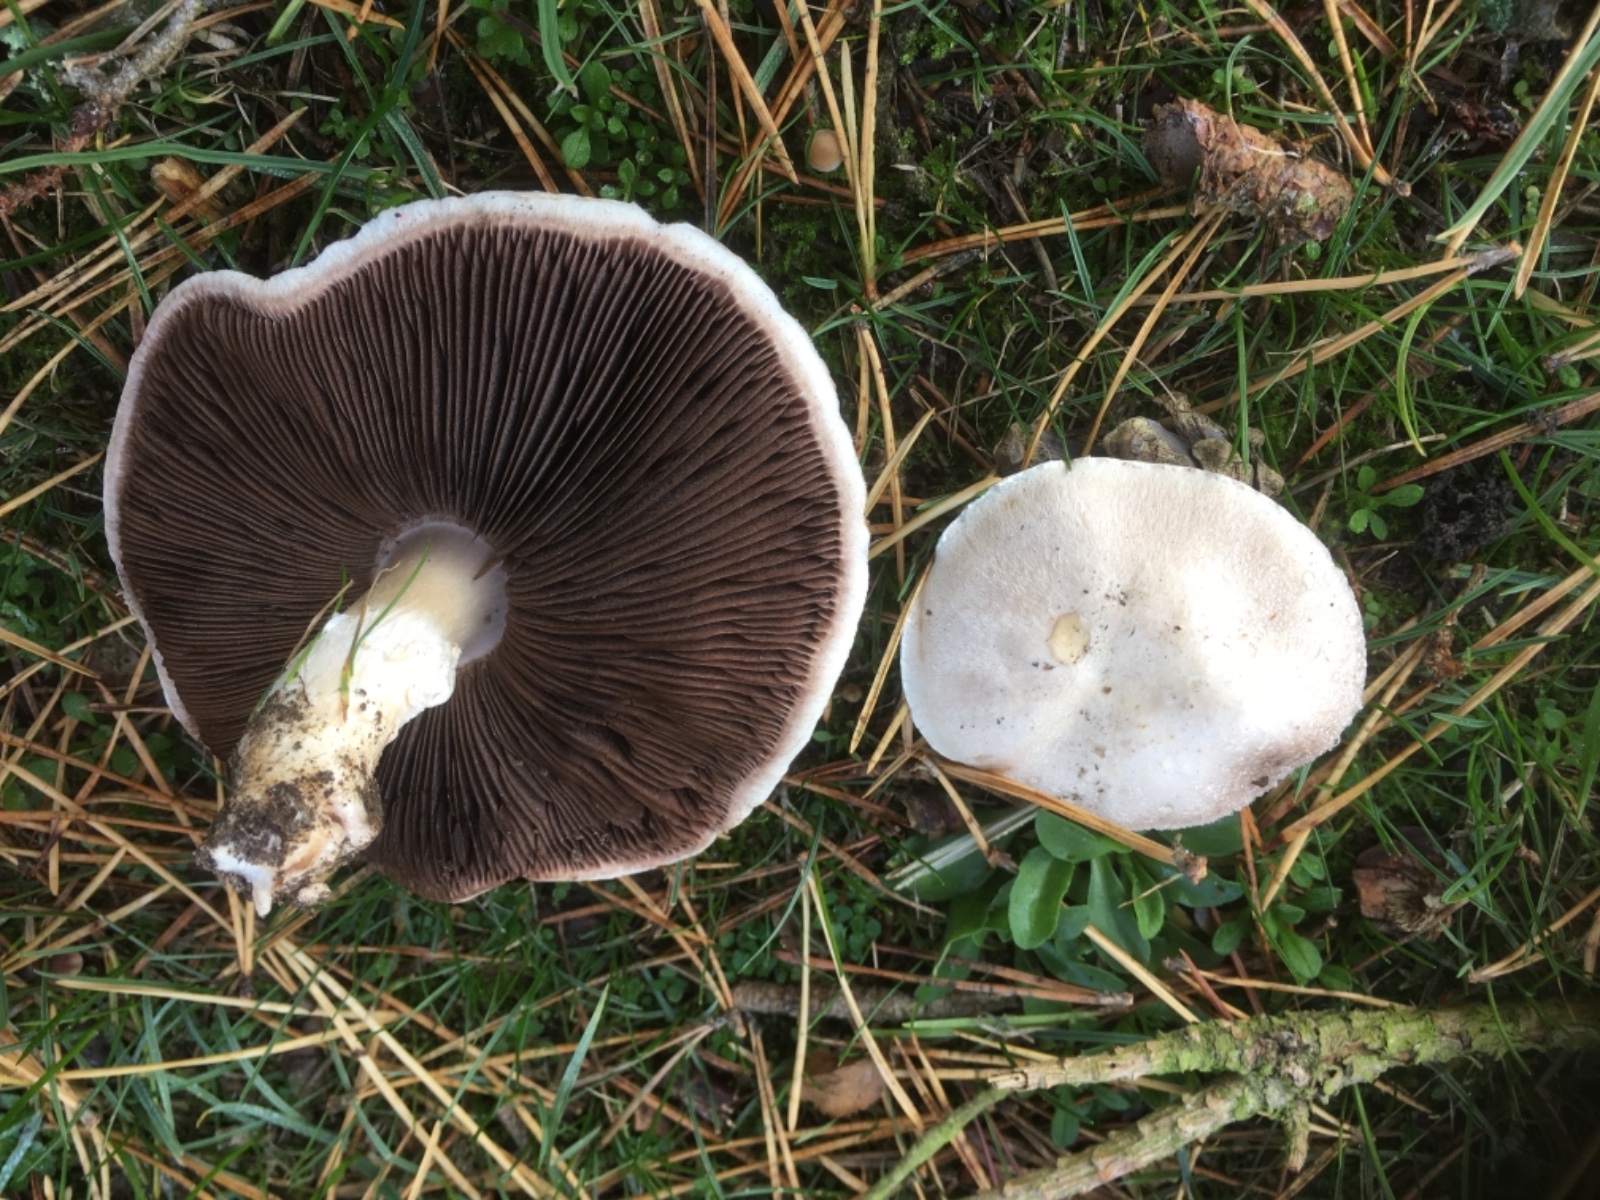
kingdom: Fungi
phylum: Basidiomycota
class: Agaricomycetes
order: Agaricales
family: Agaricaceae
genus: Agaricus
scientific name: Agaricus campestris
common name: mark-champignon
